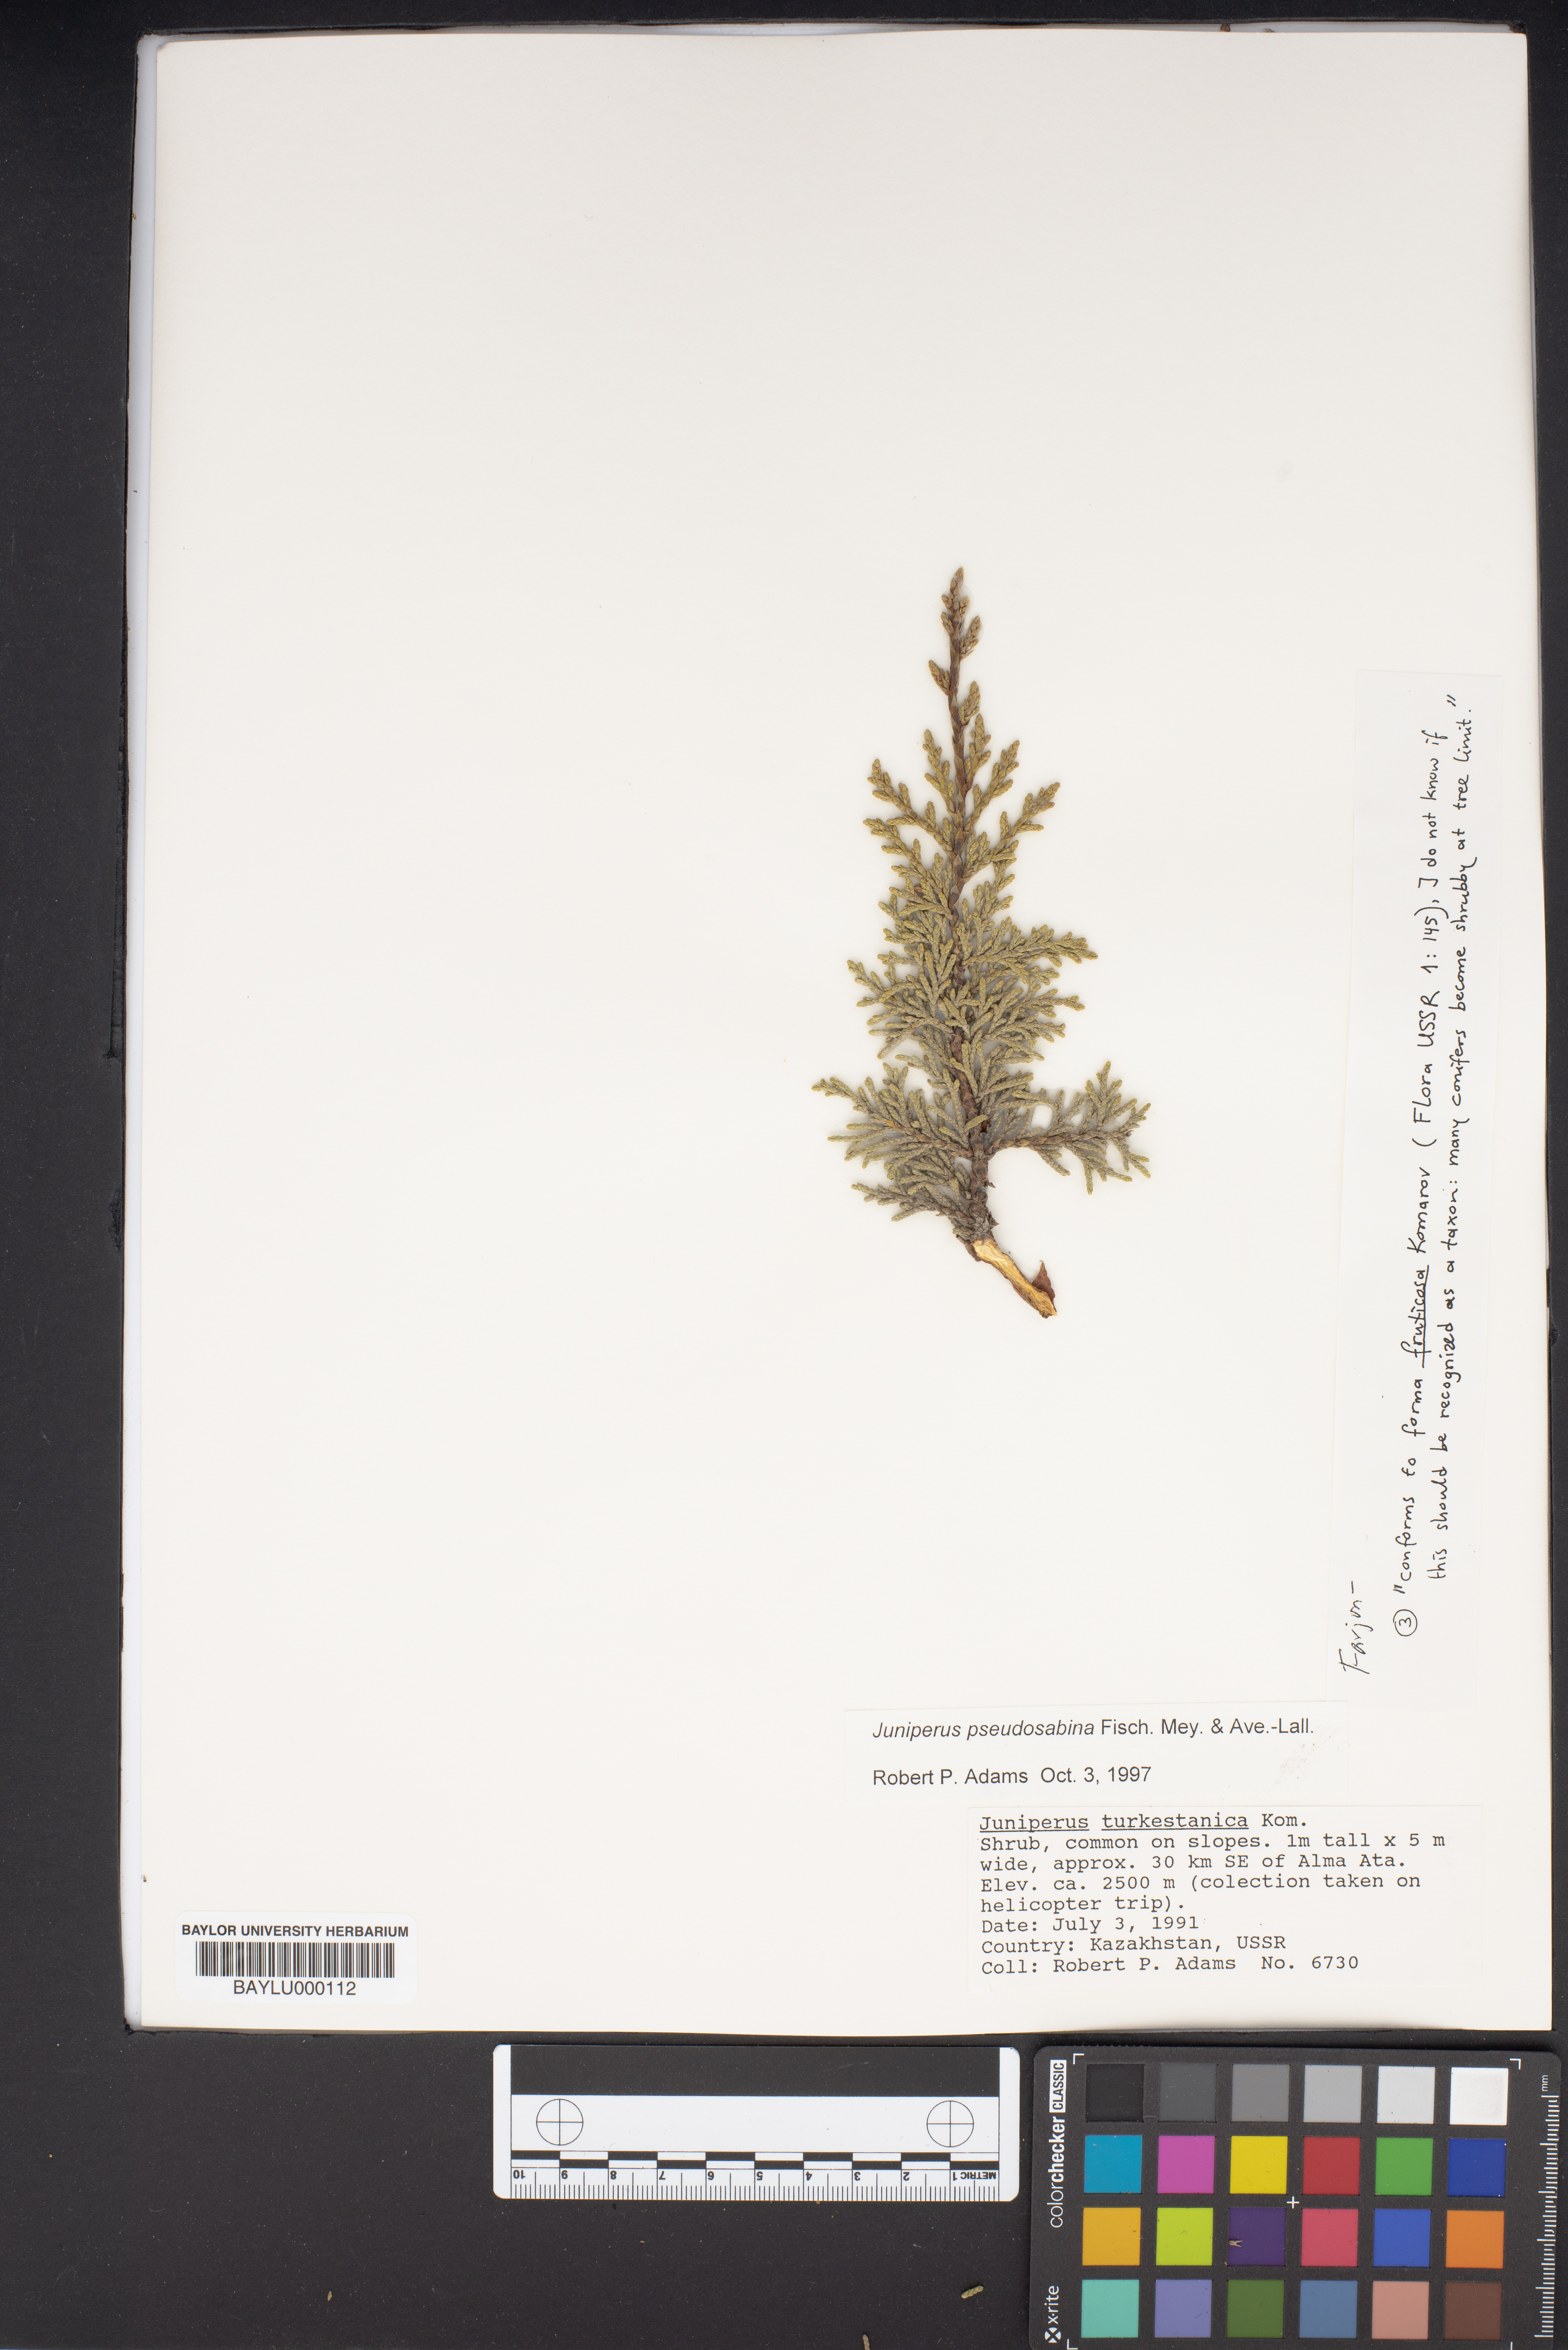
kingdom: Plantae
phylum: Tracheophyta
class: Pinopsida
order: Pinales
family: Cupressaceae
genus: Juniperus
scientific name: Juniperus pseudosabina
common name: Turkestan juniper
